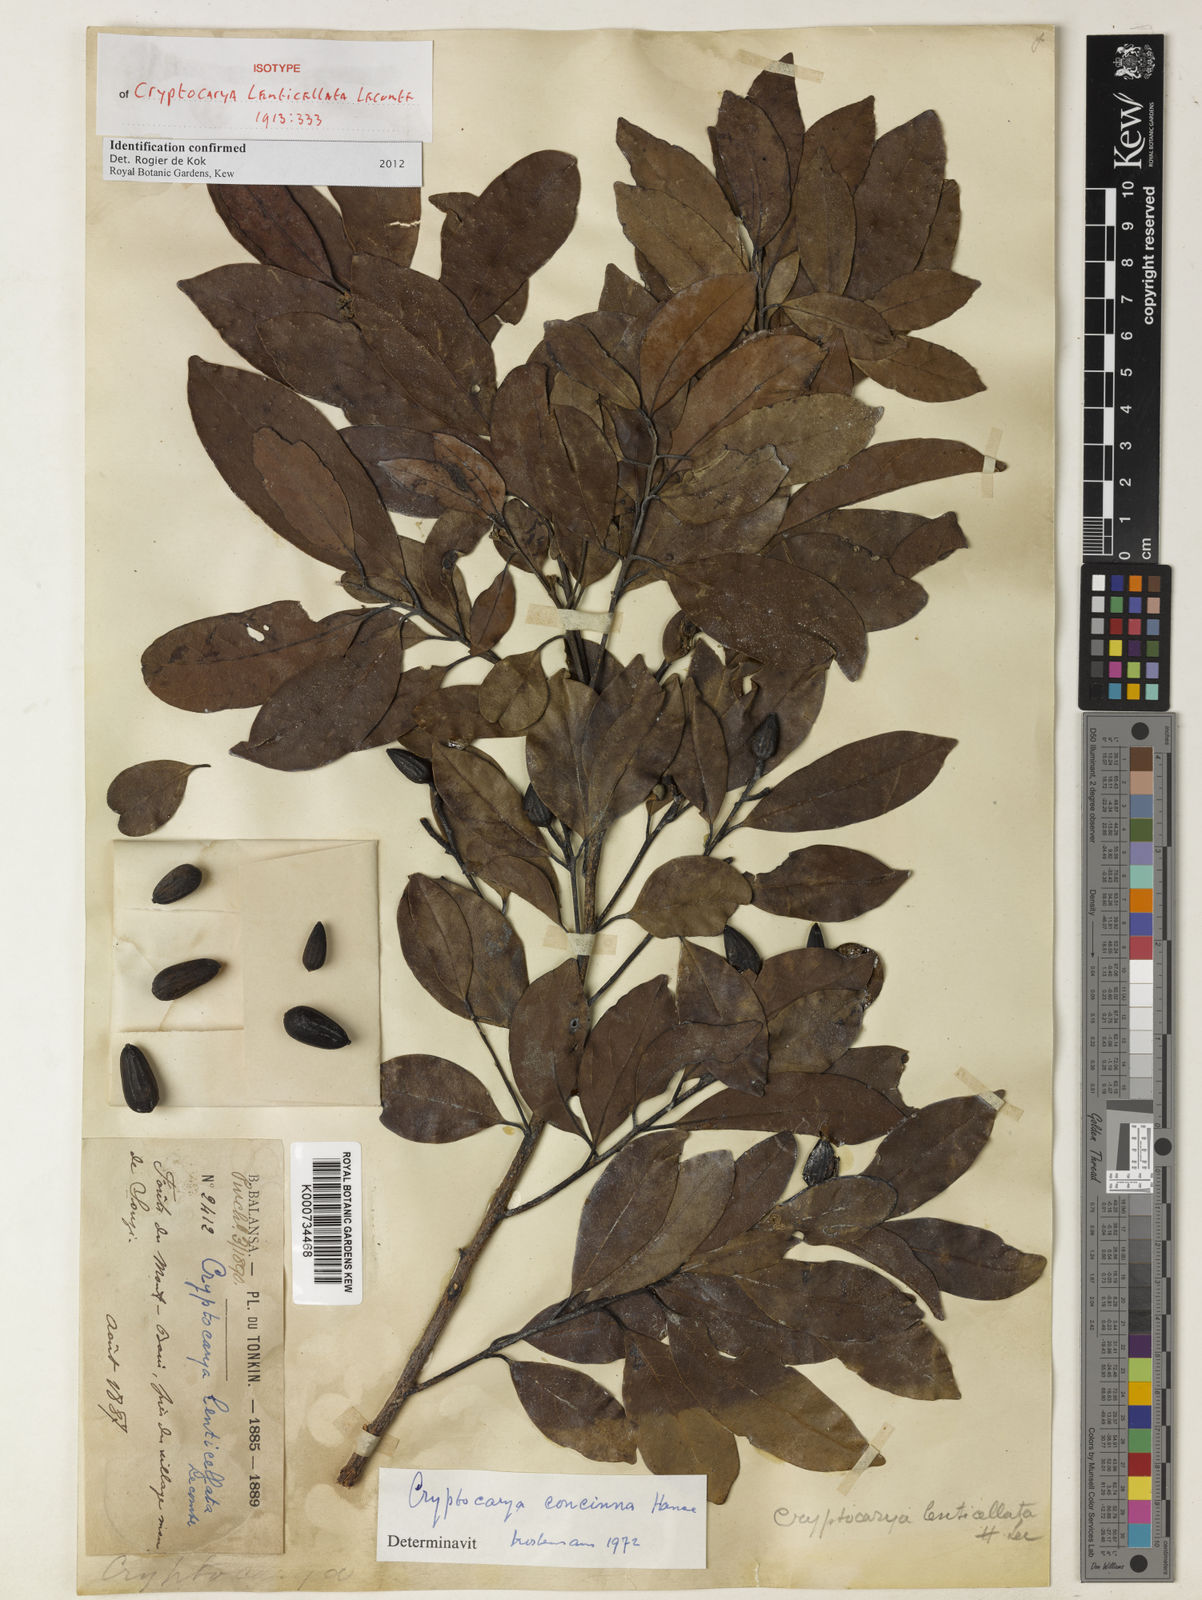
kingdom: Plantae
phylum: Tracheophyta
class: Magnoliopsida
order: Laurales
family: Lauraceae
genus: Cryptocarya
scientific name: Cryptocarya concinna
